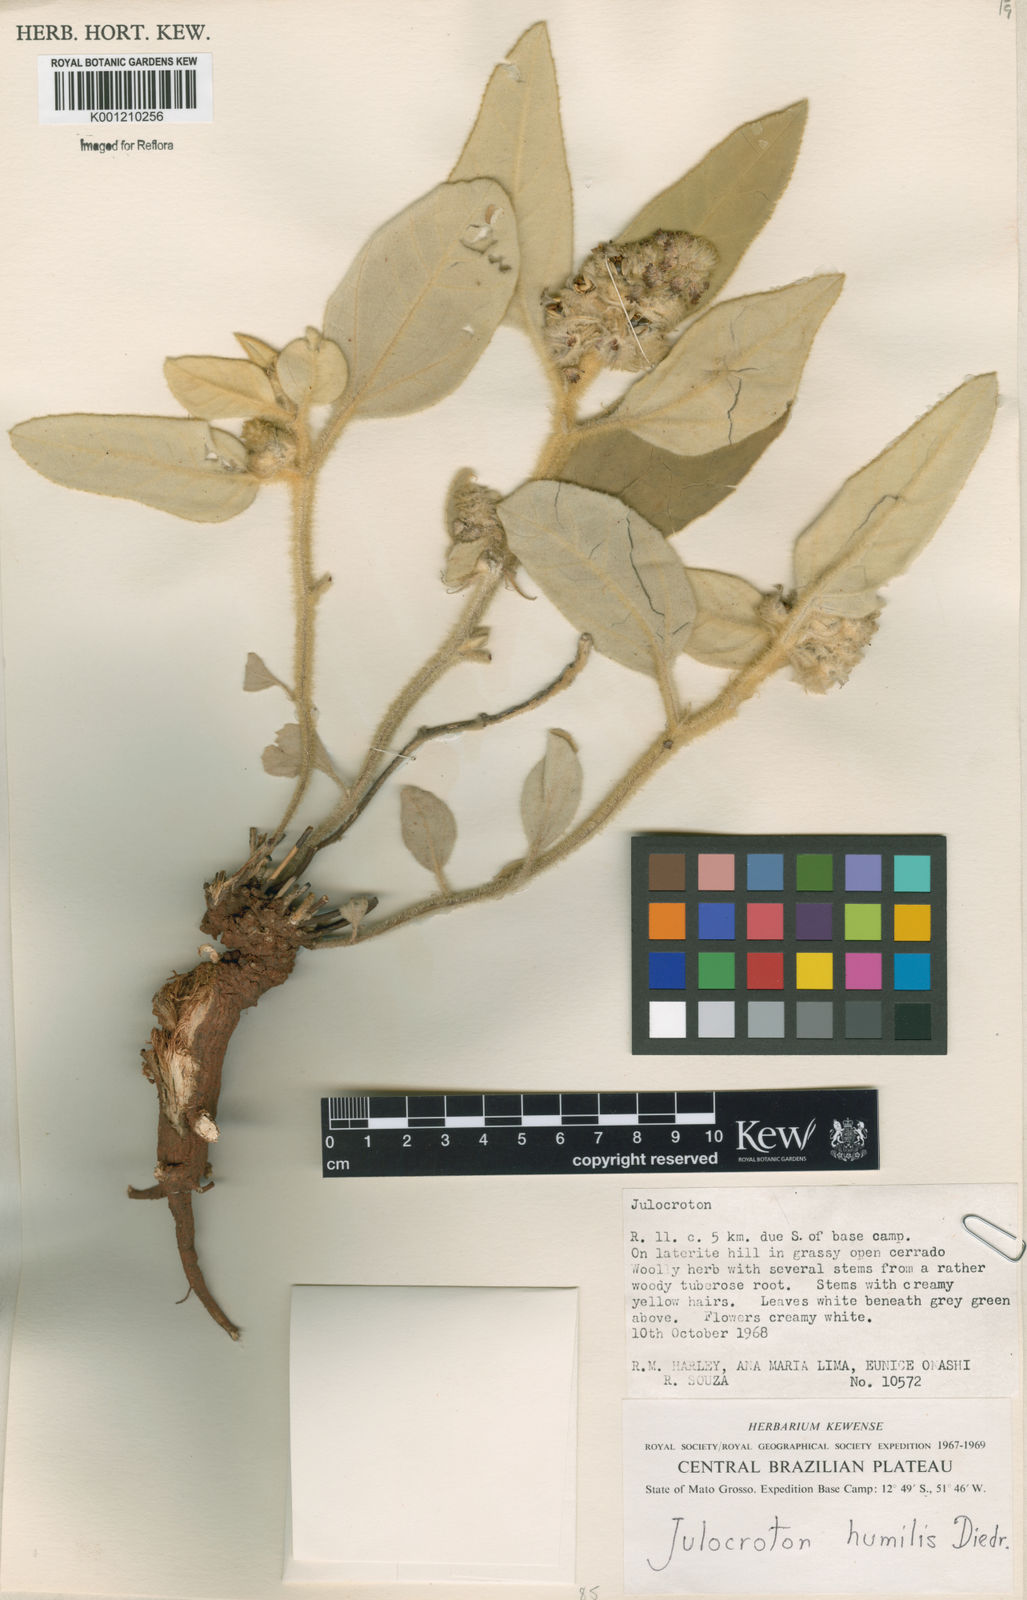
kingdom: Plantae
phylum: Tracheophyta
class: Magnoliopsida
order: Malpighiales
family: Euphorbiaceae
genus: Croton
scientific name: Croton solanaceus
